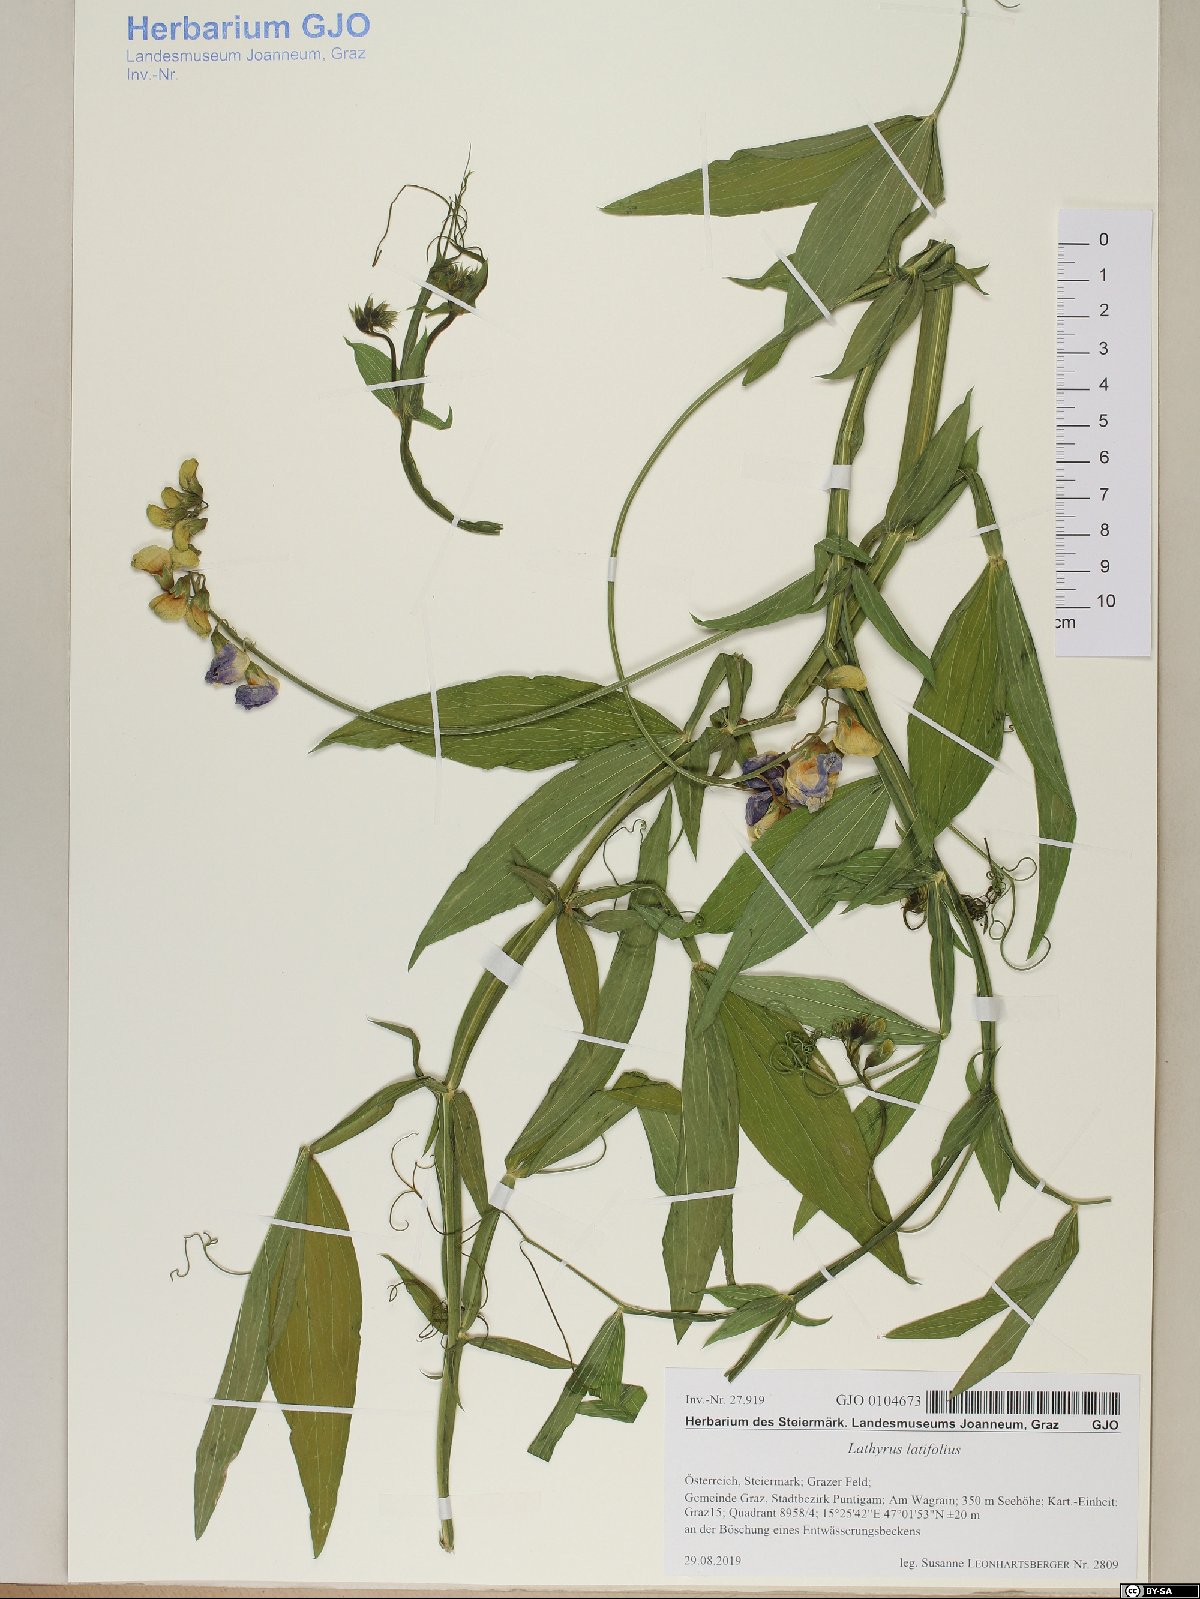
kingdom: Plantae
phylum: Tracheophyta
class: Magnoliopsida
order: Fabales
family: Fabaceae
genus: Lathyrus
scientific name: Lathyrus latifolius
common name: Perennial pea
